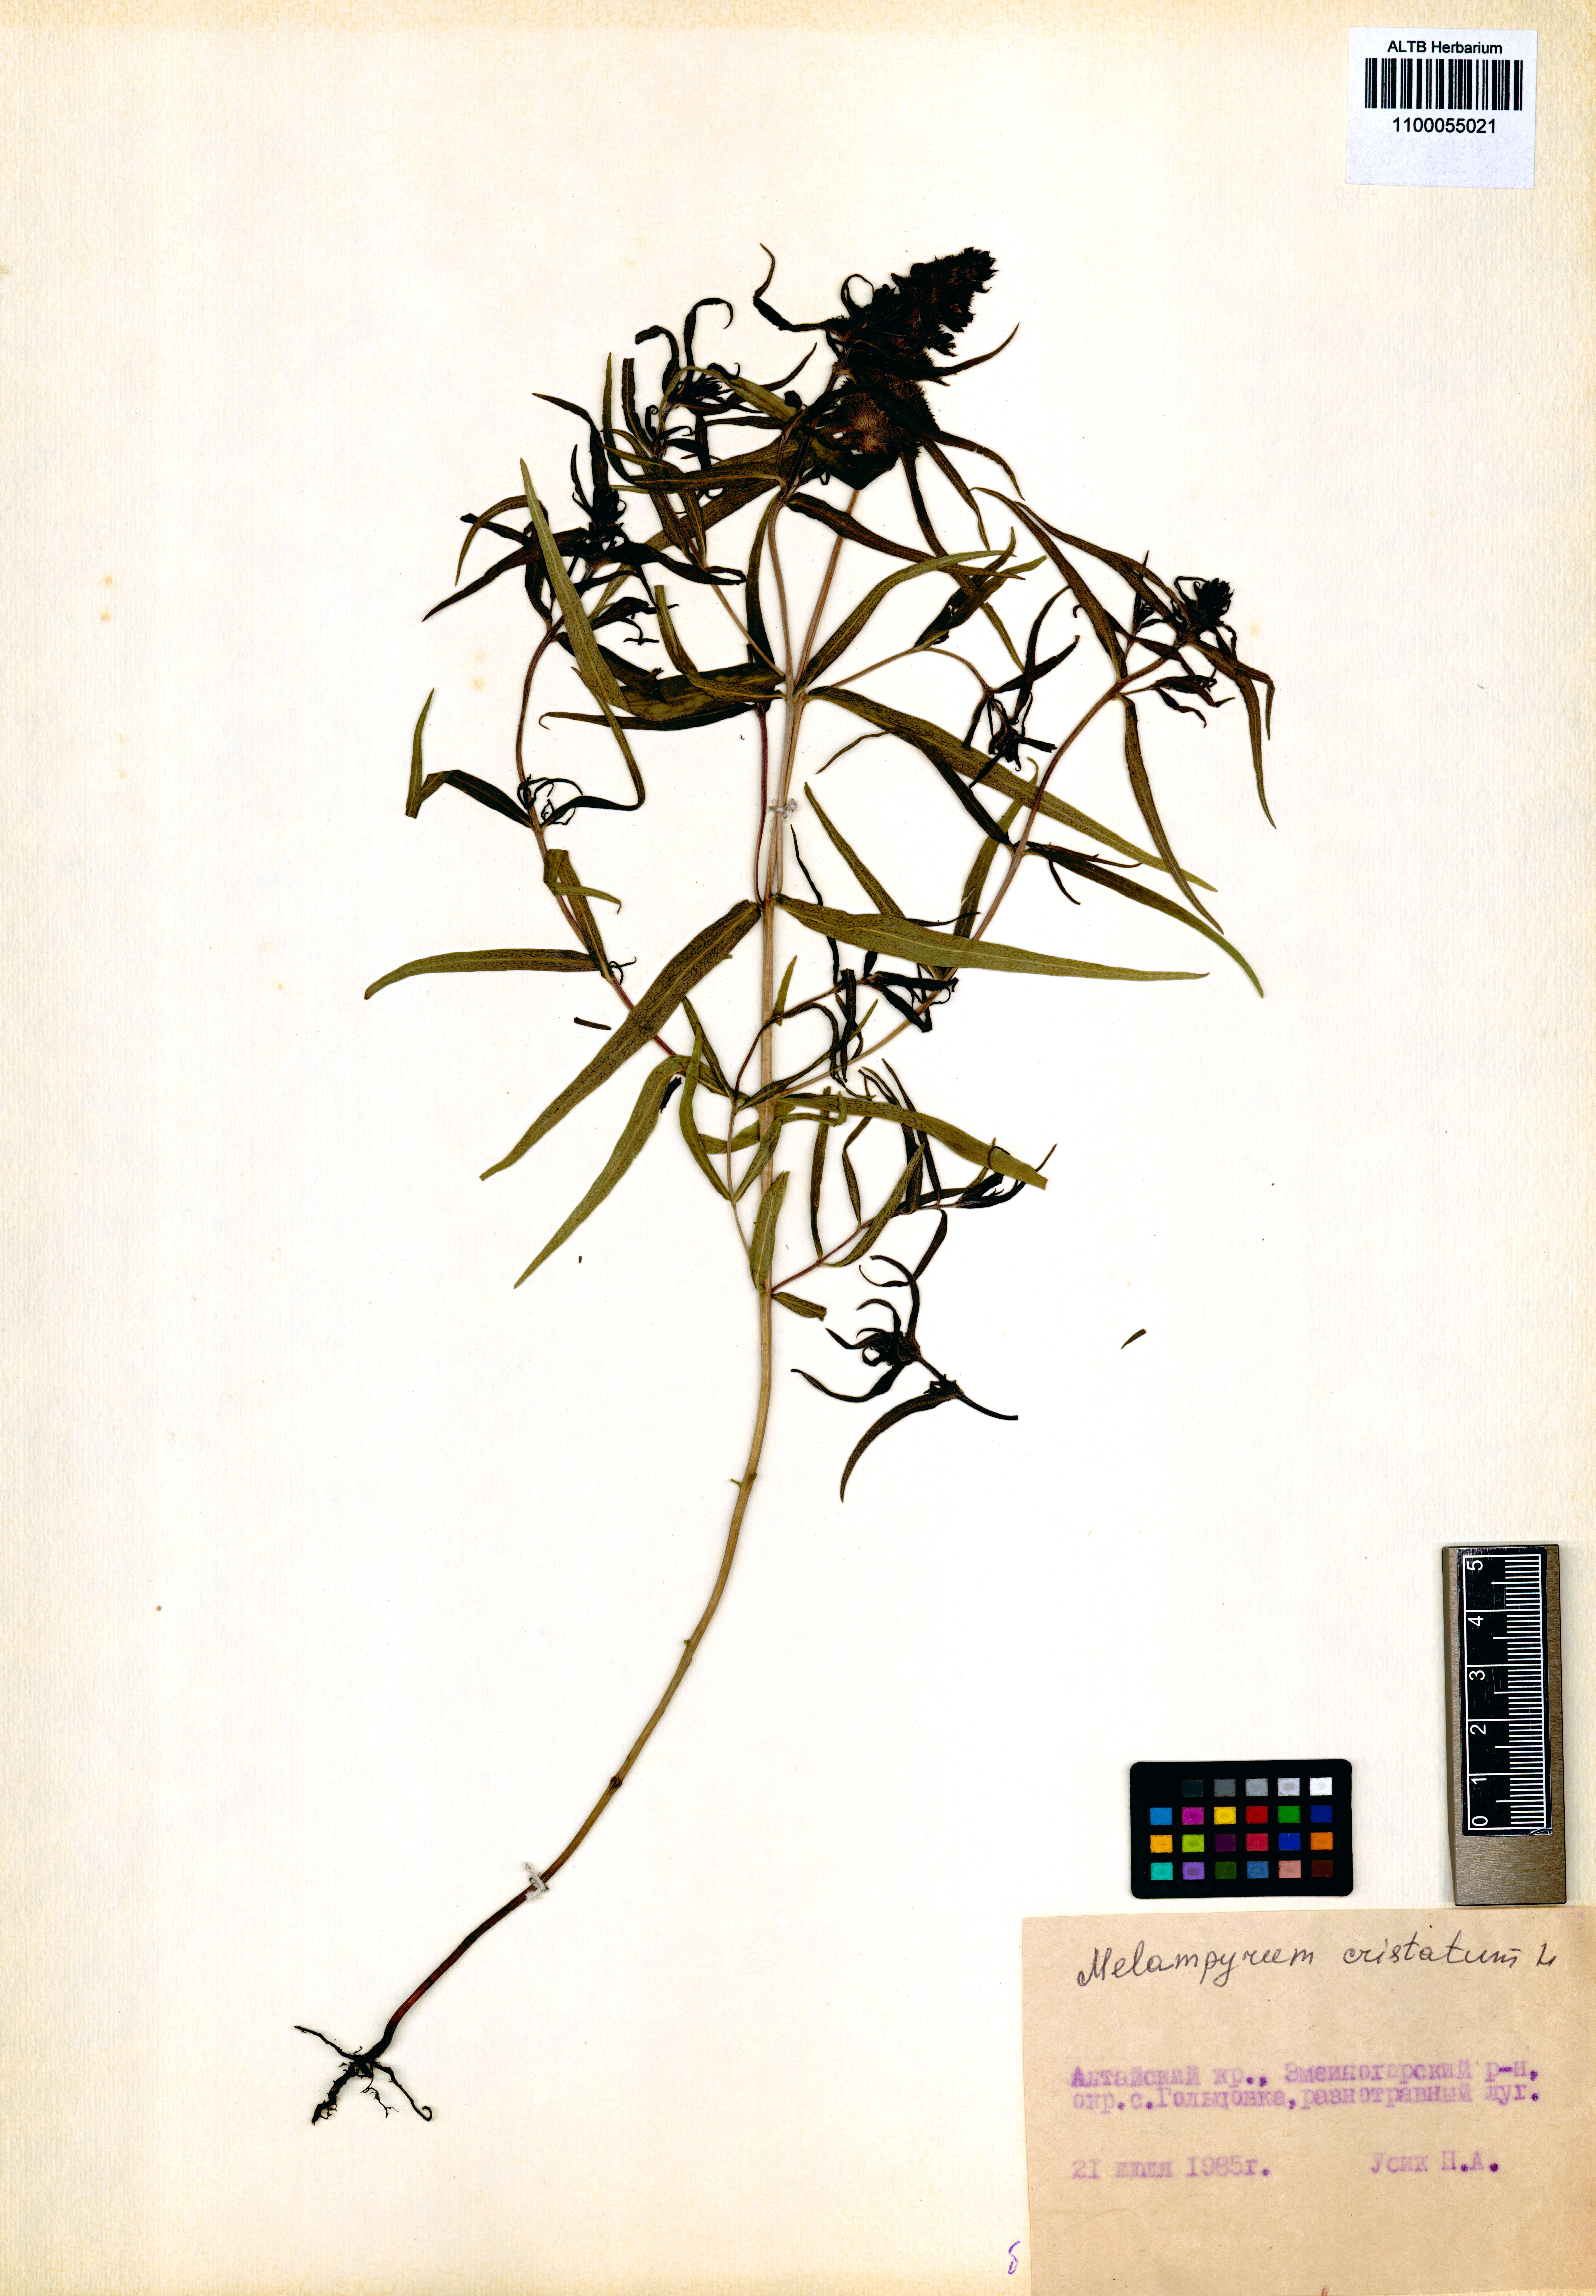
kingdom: Plantae
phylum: Tracheophyta
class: Magnoliopsida
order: Lamiales
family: Orobanchaceae
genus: Melampyrum
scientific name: Melampyrum cristatum
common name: Crested cow-wheat
